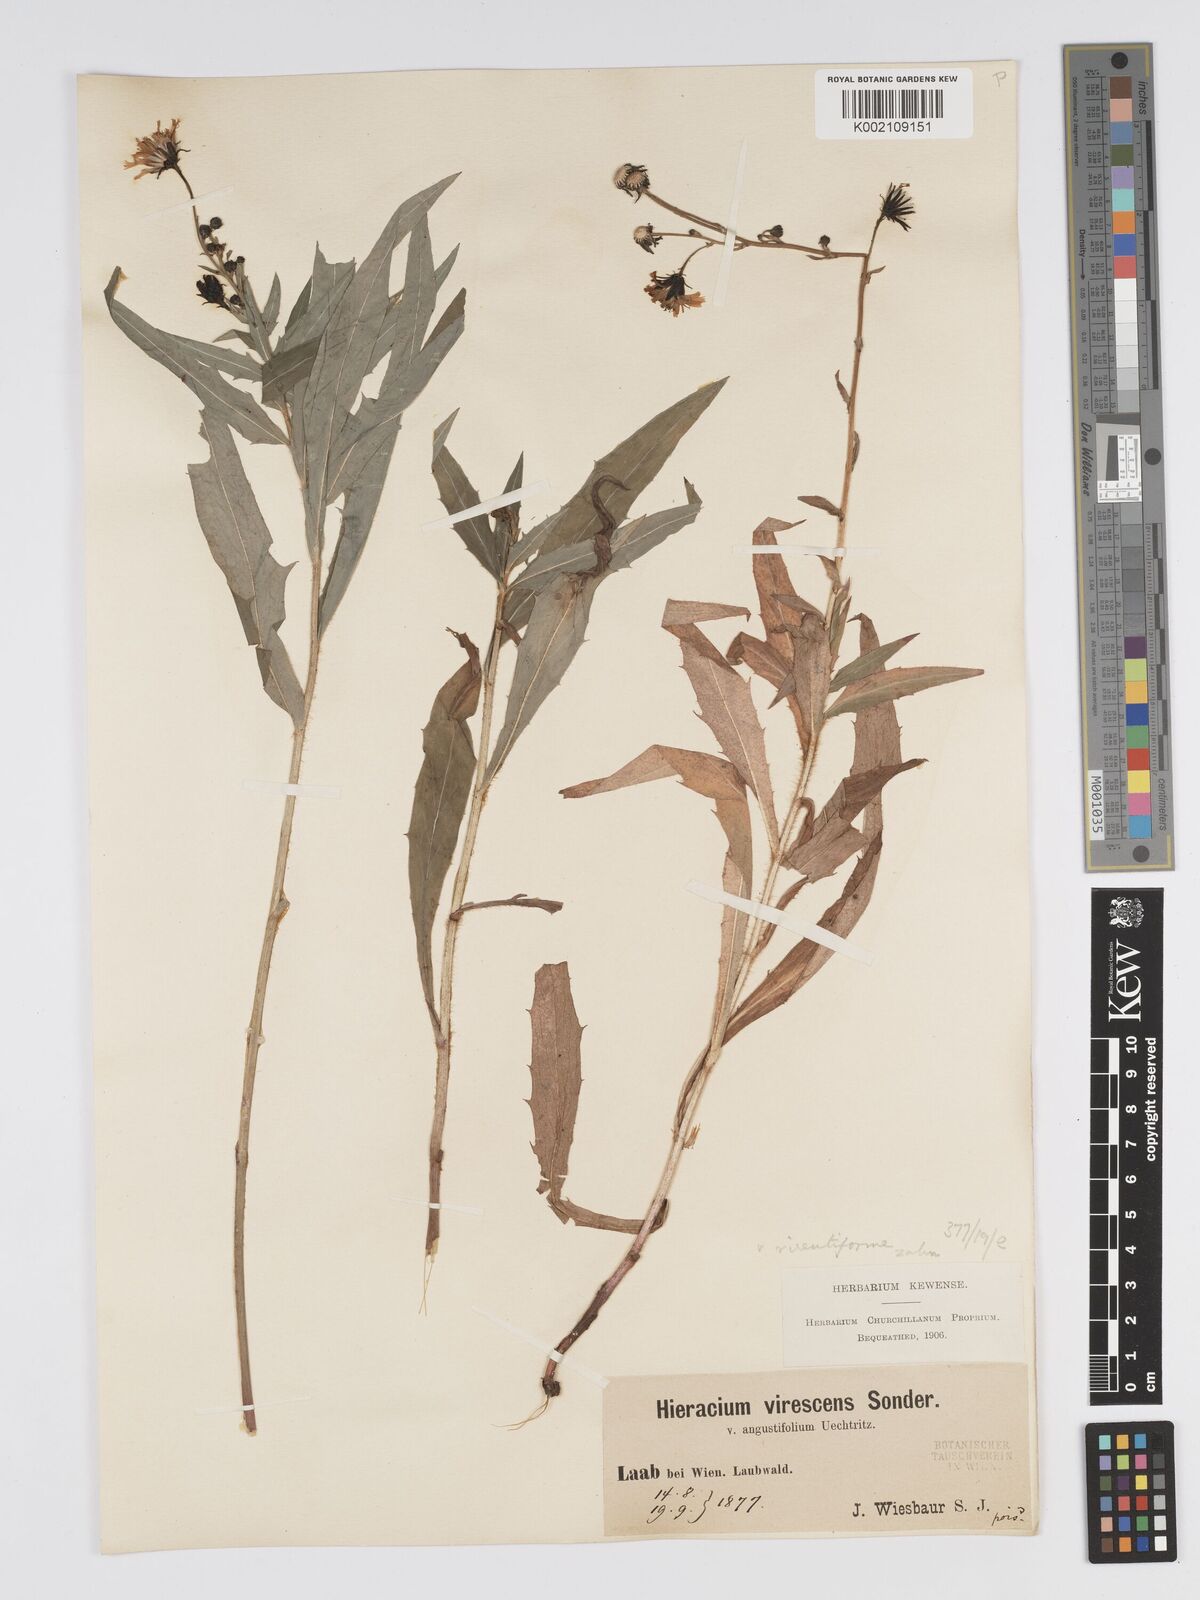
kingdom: Plantae
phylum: Tracheophyta
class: Magnoliopsida
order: Asterales
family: Asteraceae
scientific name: Asteraceae
